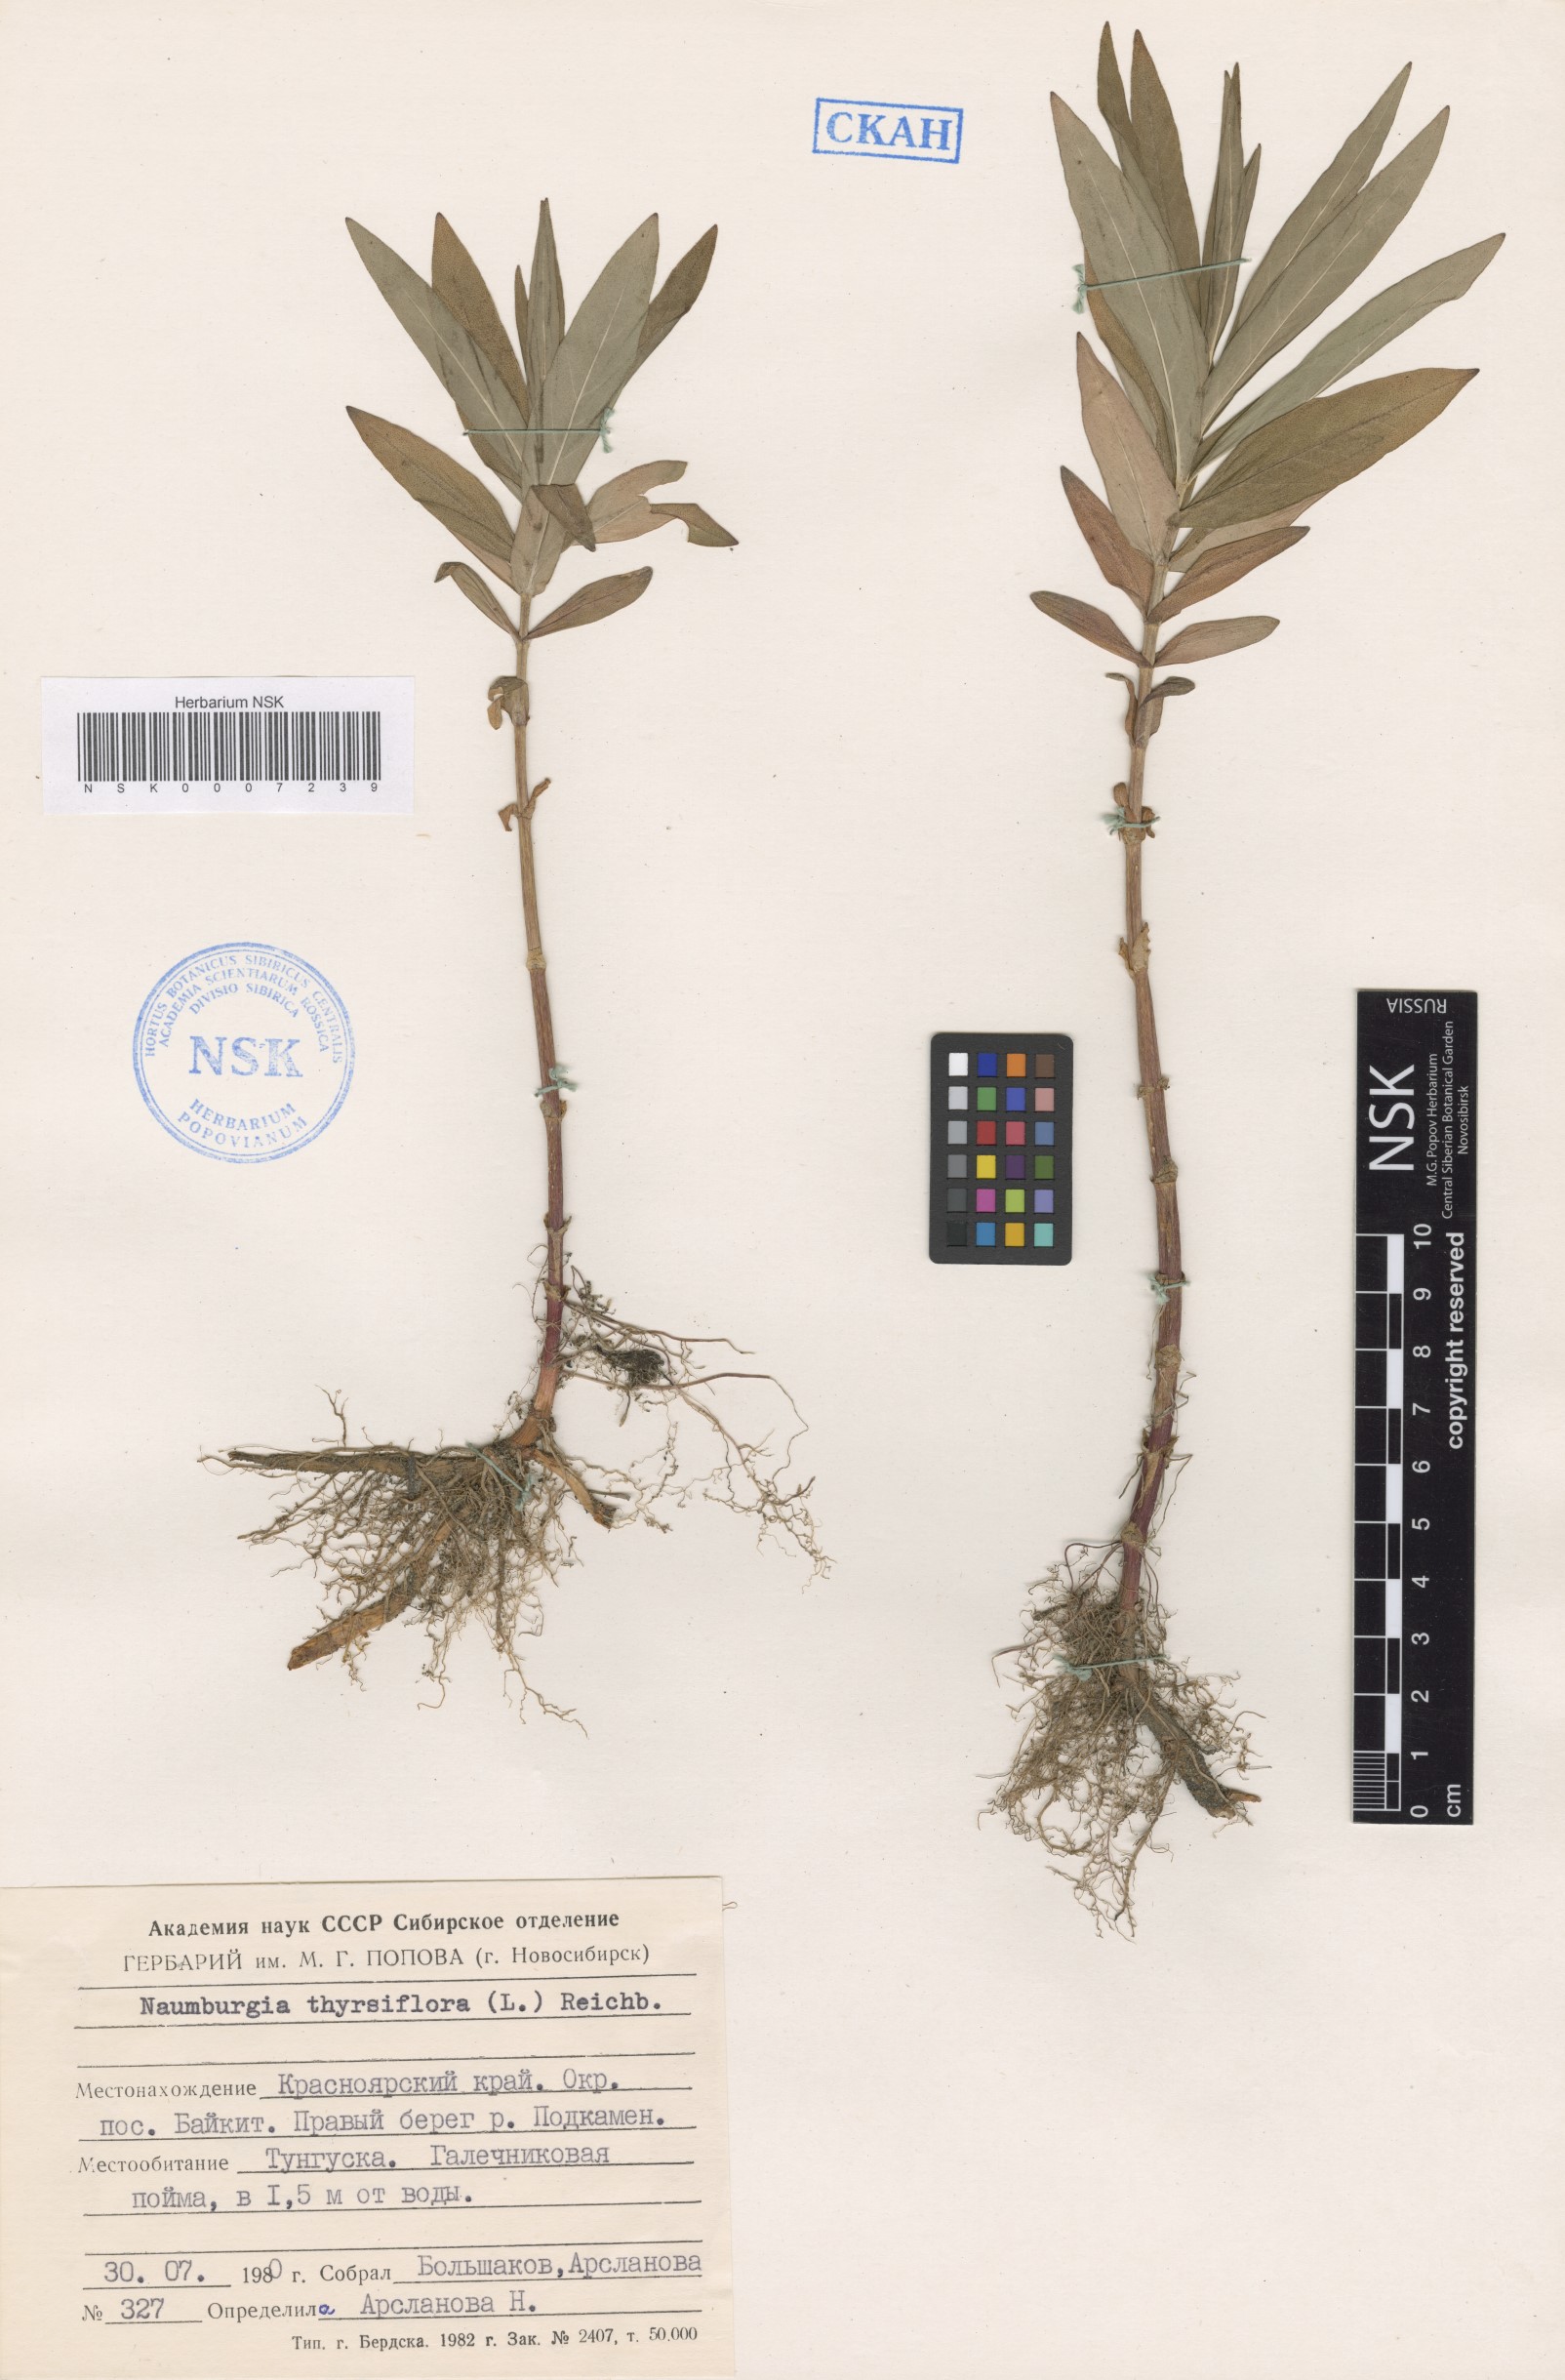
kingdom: Plantae
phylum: Tracheophyta
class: Magnoliopsida
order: Ericales
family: Primulaceae
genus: Lysimachia
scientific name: Lysimachia thyrsiflora
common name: Tufted loosestrife
